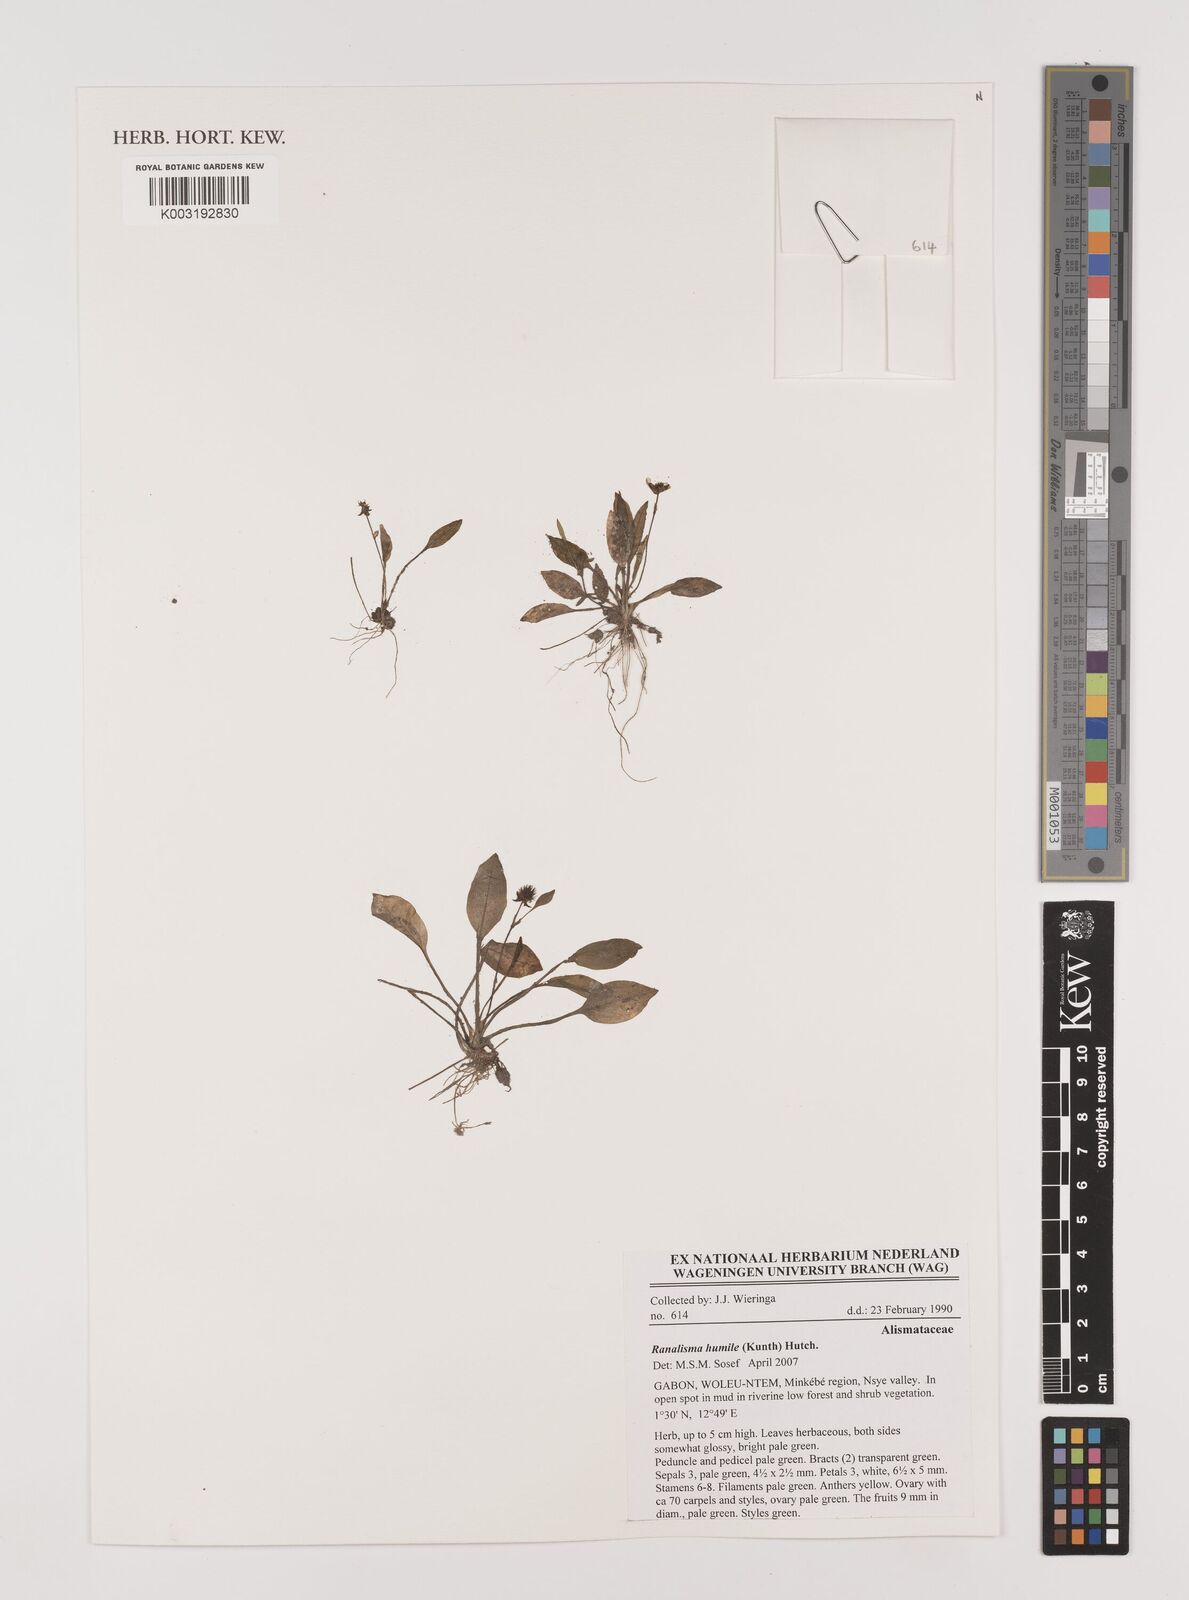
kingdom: Plantae
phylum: Tracheophyta
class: Liliopsida
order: Alismatales
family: Alismataceae
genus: Ranalisma
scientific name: Ranalisma humile
